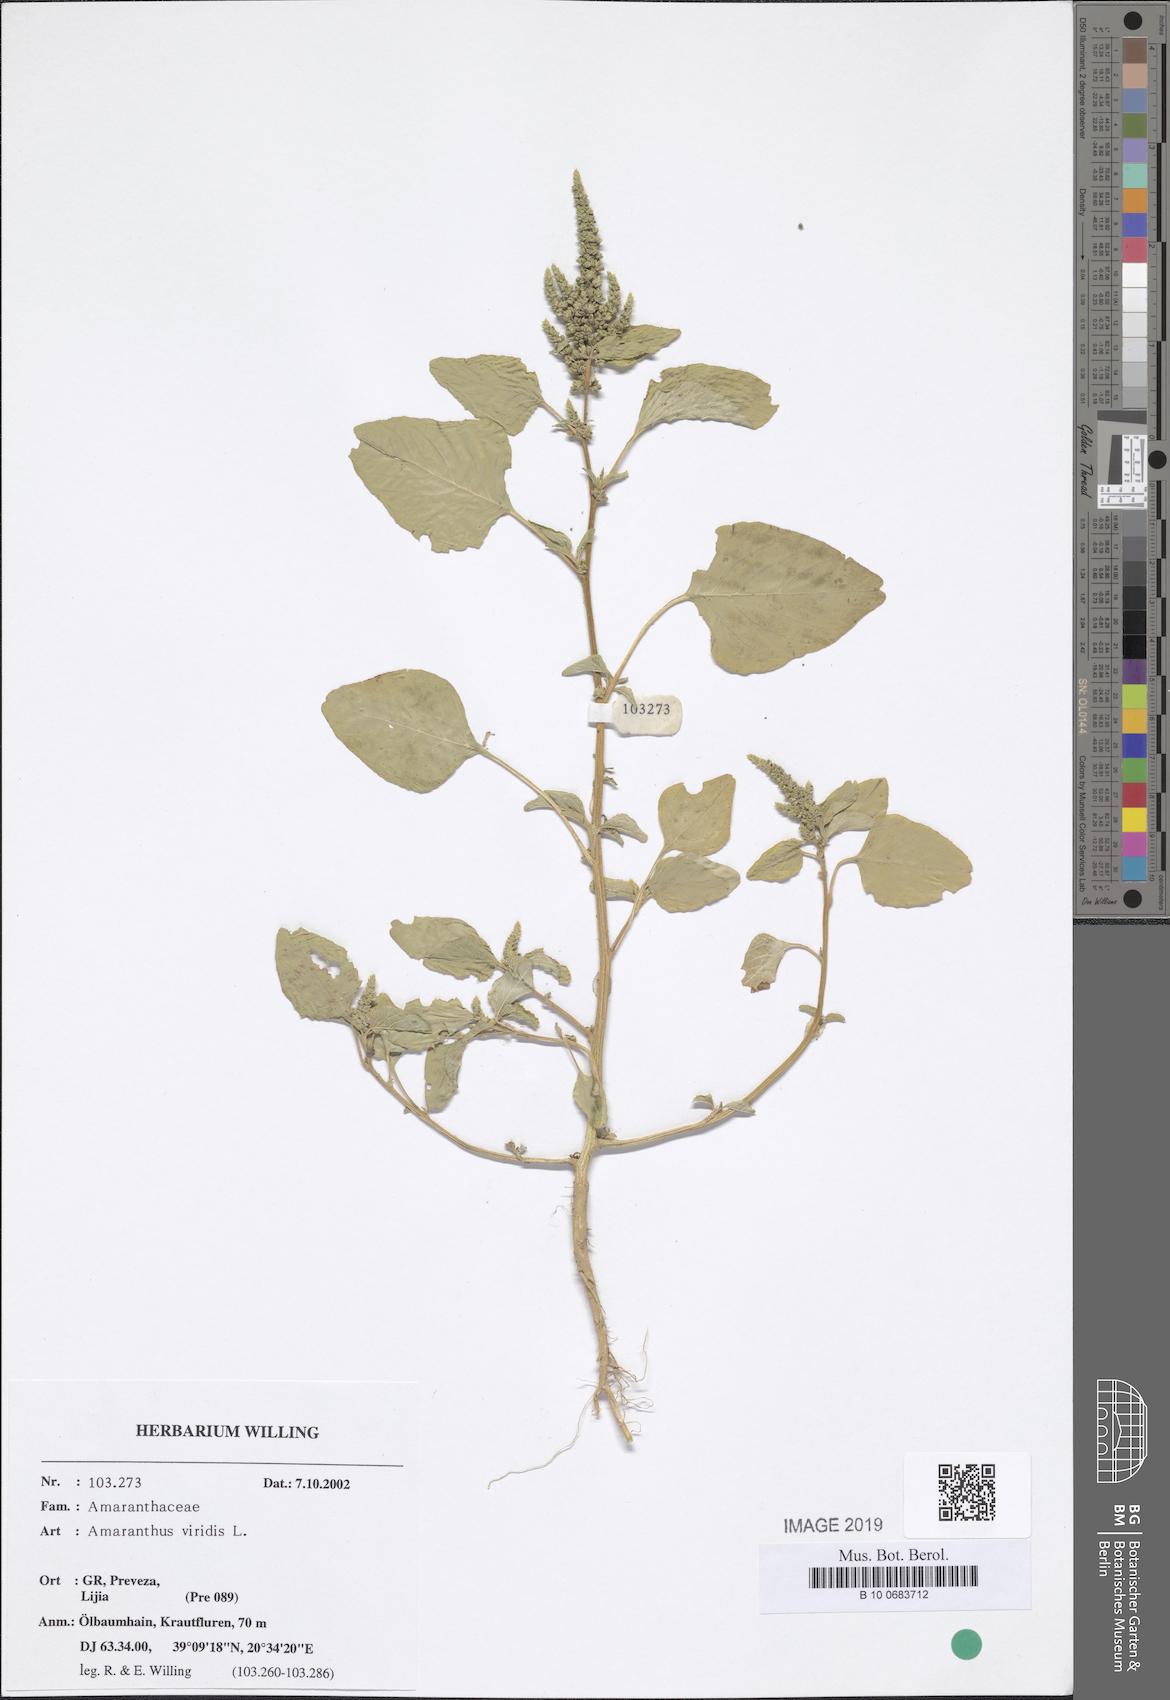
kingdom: Plantae
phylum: Tracheophyta
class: Magnoliopsida
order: Caryophyllales
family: Amaranthaceae
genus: Amaranthus
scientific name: Amaranthus viridis
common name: Slender amaranth
